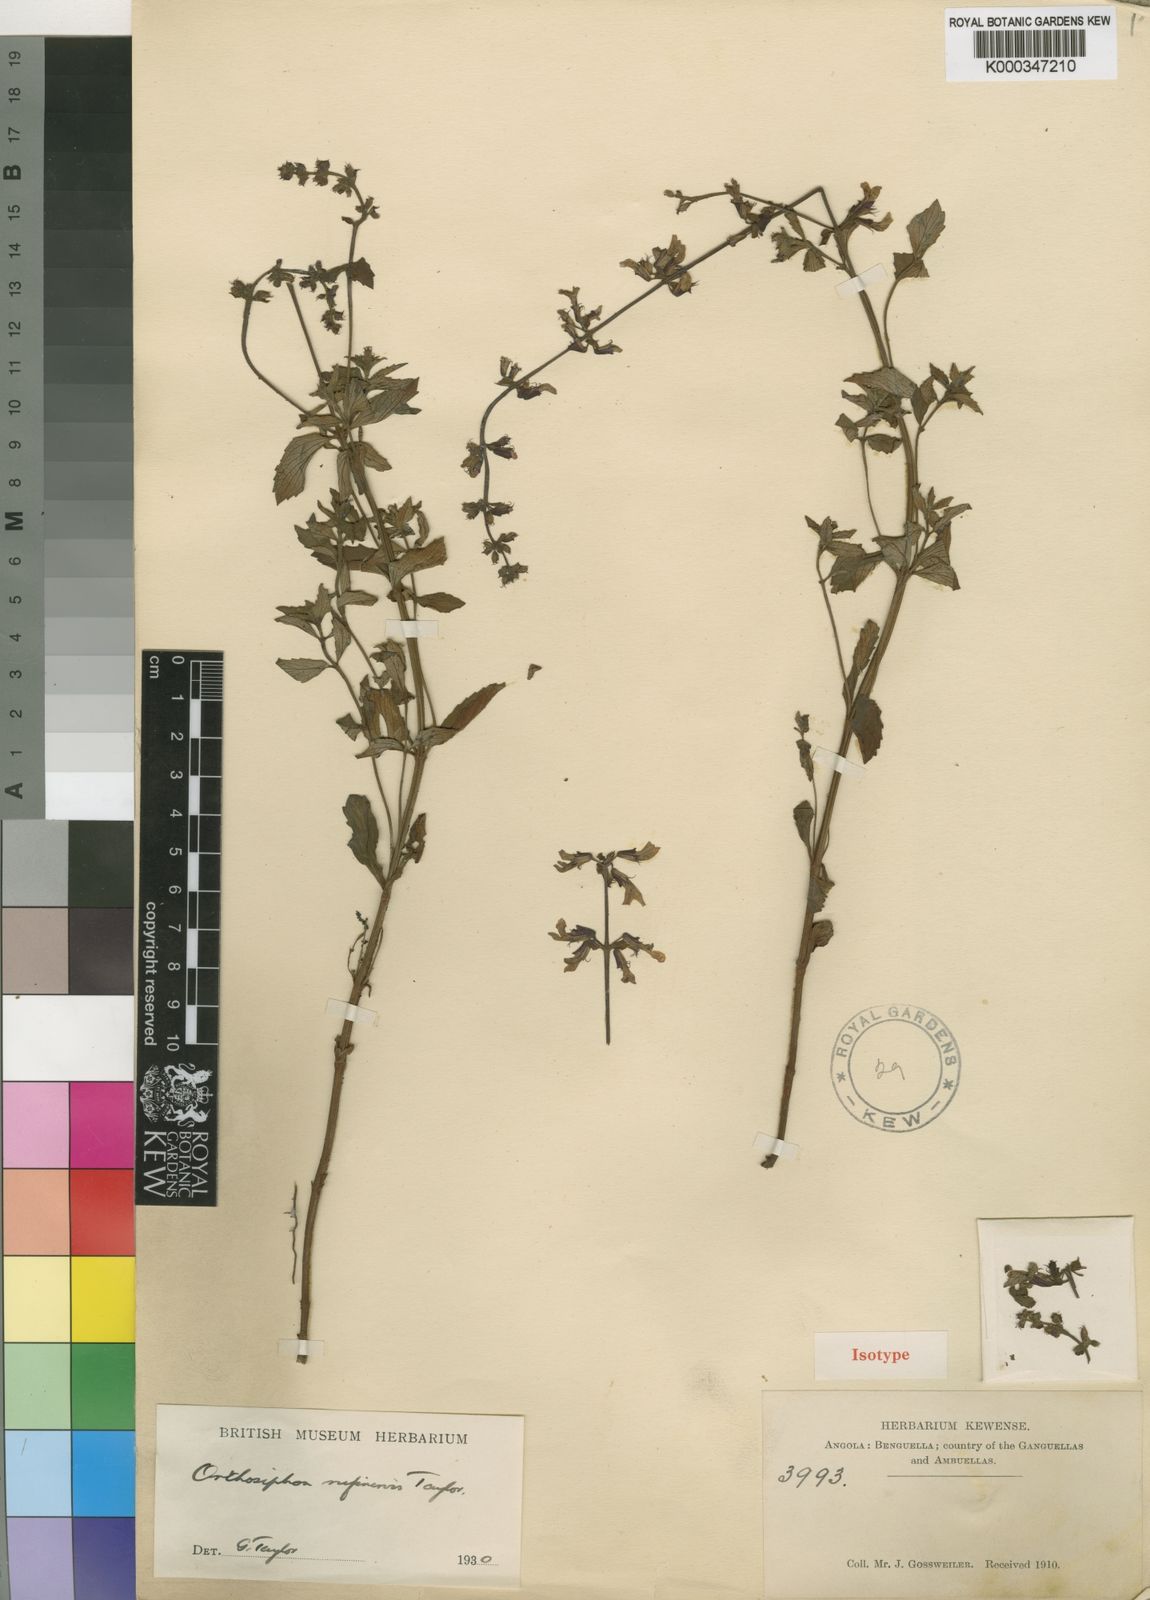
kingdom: Plantae
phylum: Tracheophyta
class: Magnoliopsida
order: Lamiales
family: Lamiaceae
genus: Orthosiphon
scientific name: Orthosiphon rufinervis
